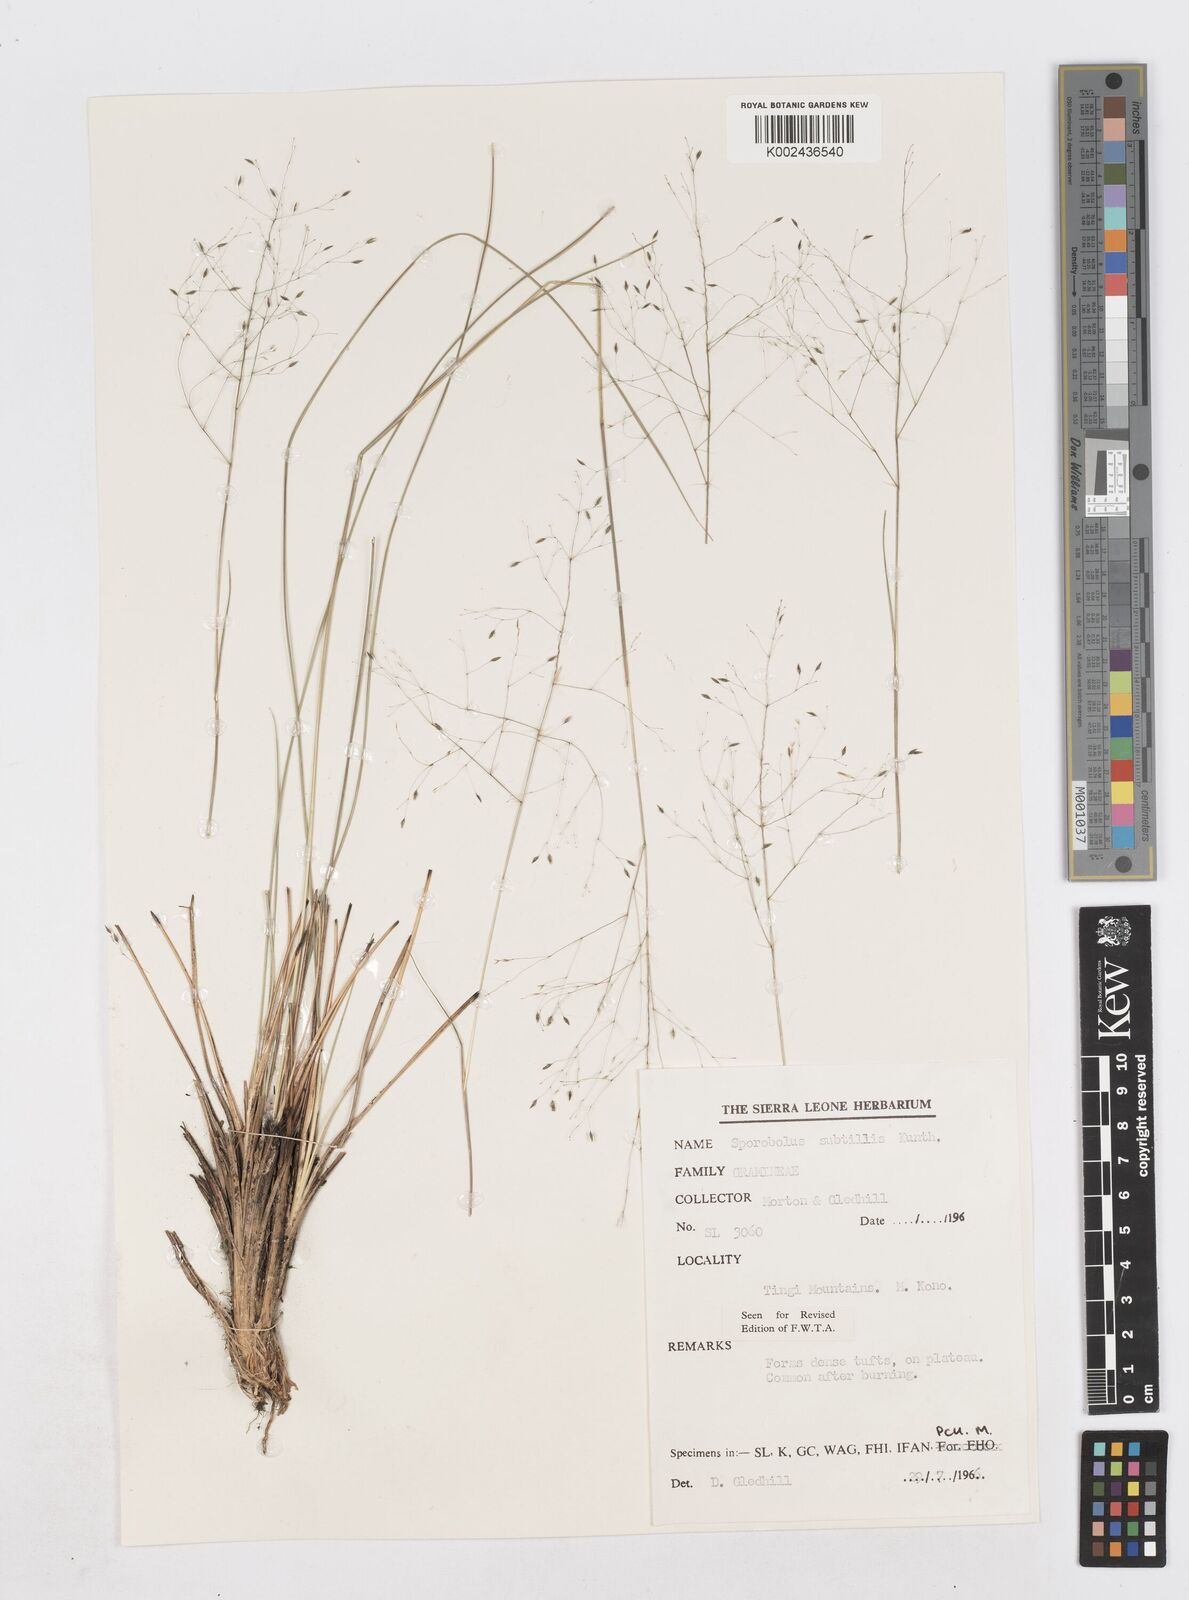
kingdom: Plantae
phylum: Tracheophyta
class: Liliopsida
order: Poales
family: Poaceae
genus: Sporobolus
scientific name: Sporobolus subtilis
